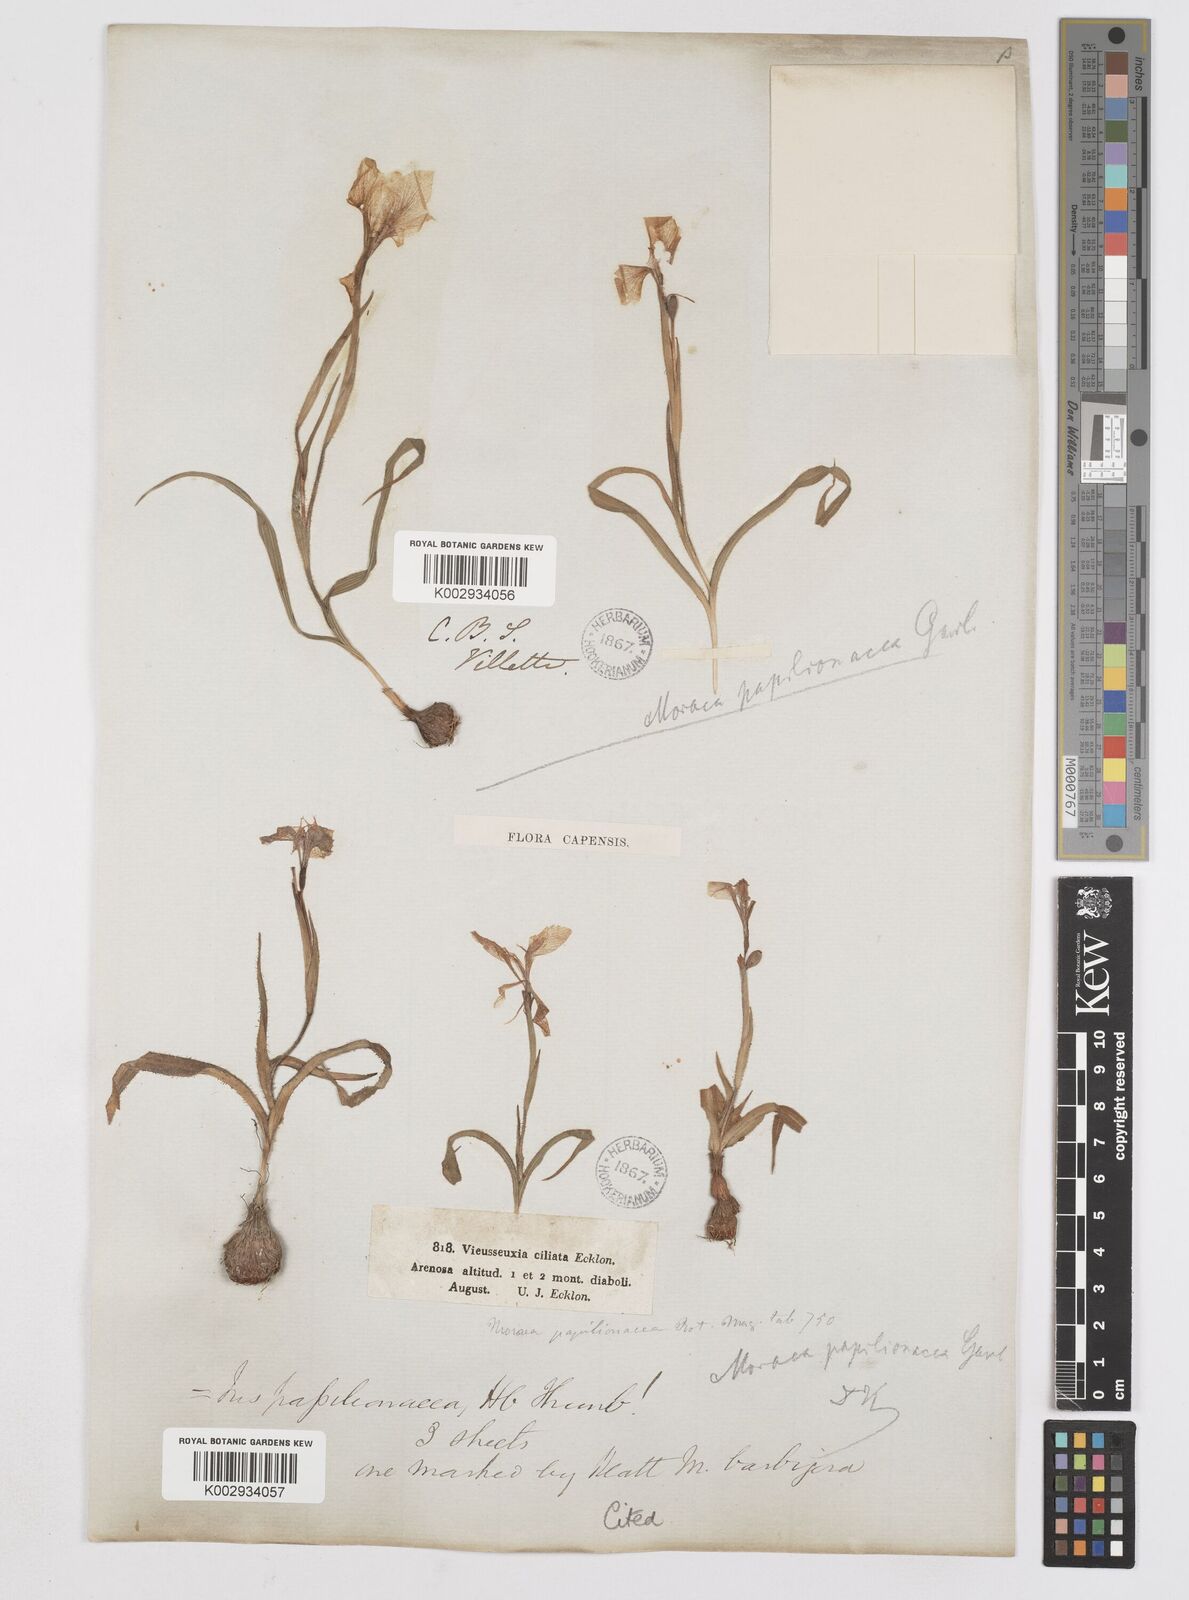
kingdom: Plantae
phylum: Tracheophyta
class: Liliopsida
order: Asparagales
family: Iridaceae
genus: Moraea
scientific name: Moraea papilionacea
